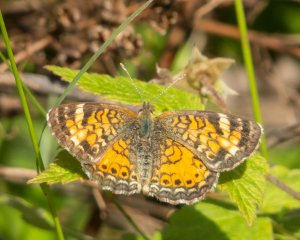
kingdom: Animalia
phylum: Arthropoda
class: Insecta
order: Lepidoptera
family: Nymphalidae
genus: Phyciodes
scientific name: Phyciodes tharos
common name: Northern Crescent
